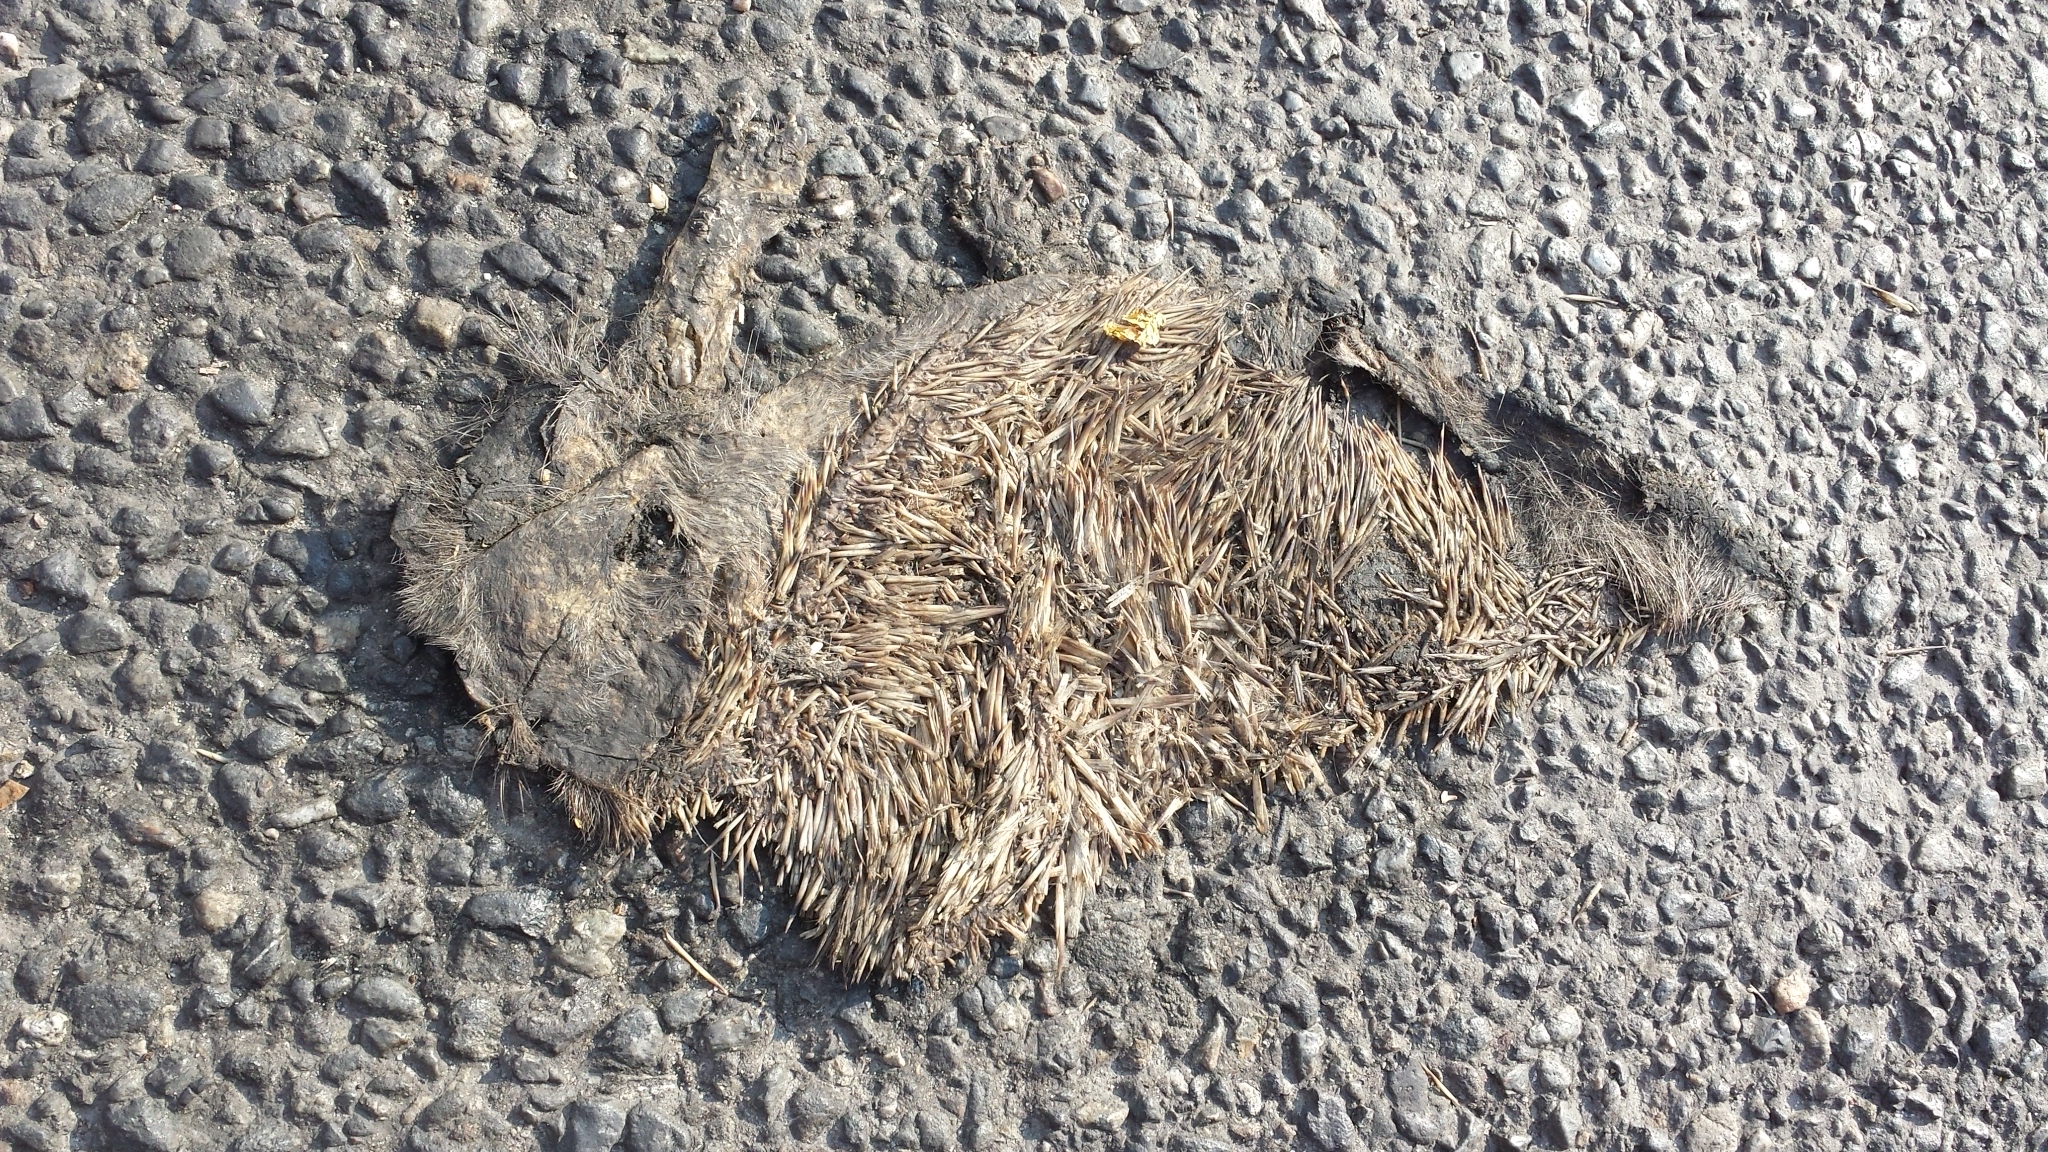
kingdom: Animalia
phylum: Chordata
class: Mammalia
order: Erinaceomorpha
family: Erinaceidae
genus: Erinaceus
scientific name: Erinaceus
